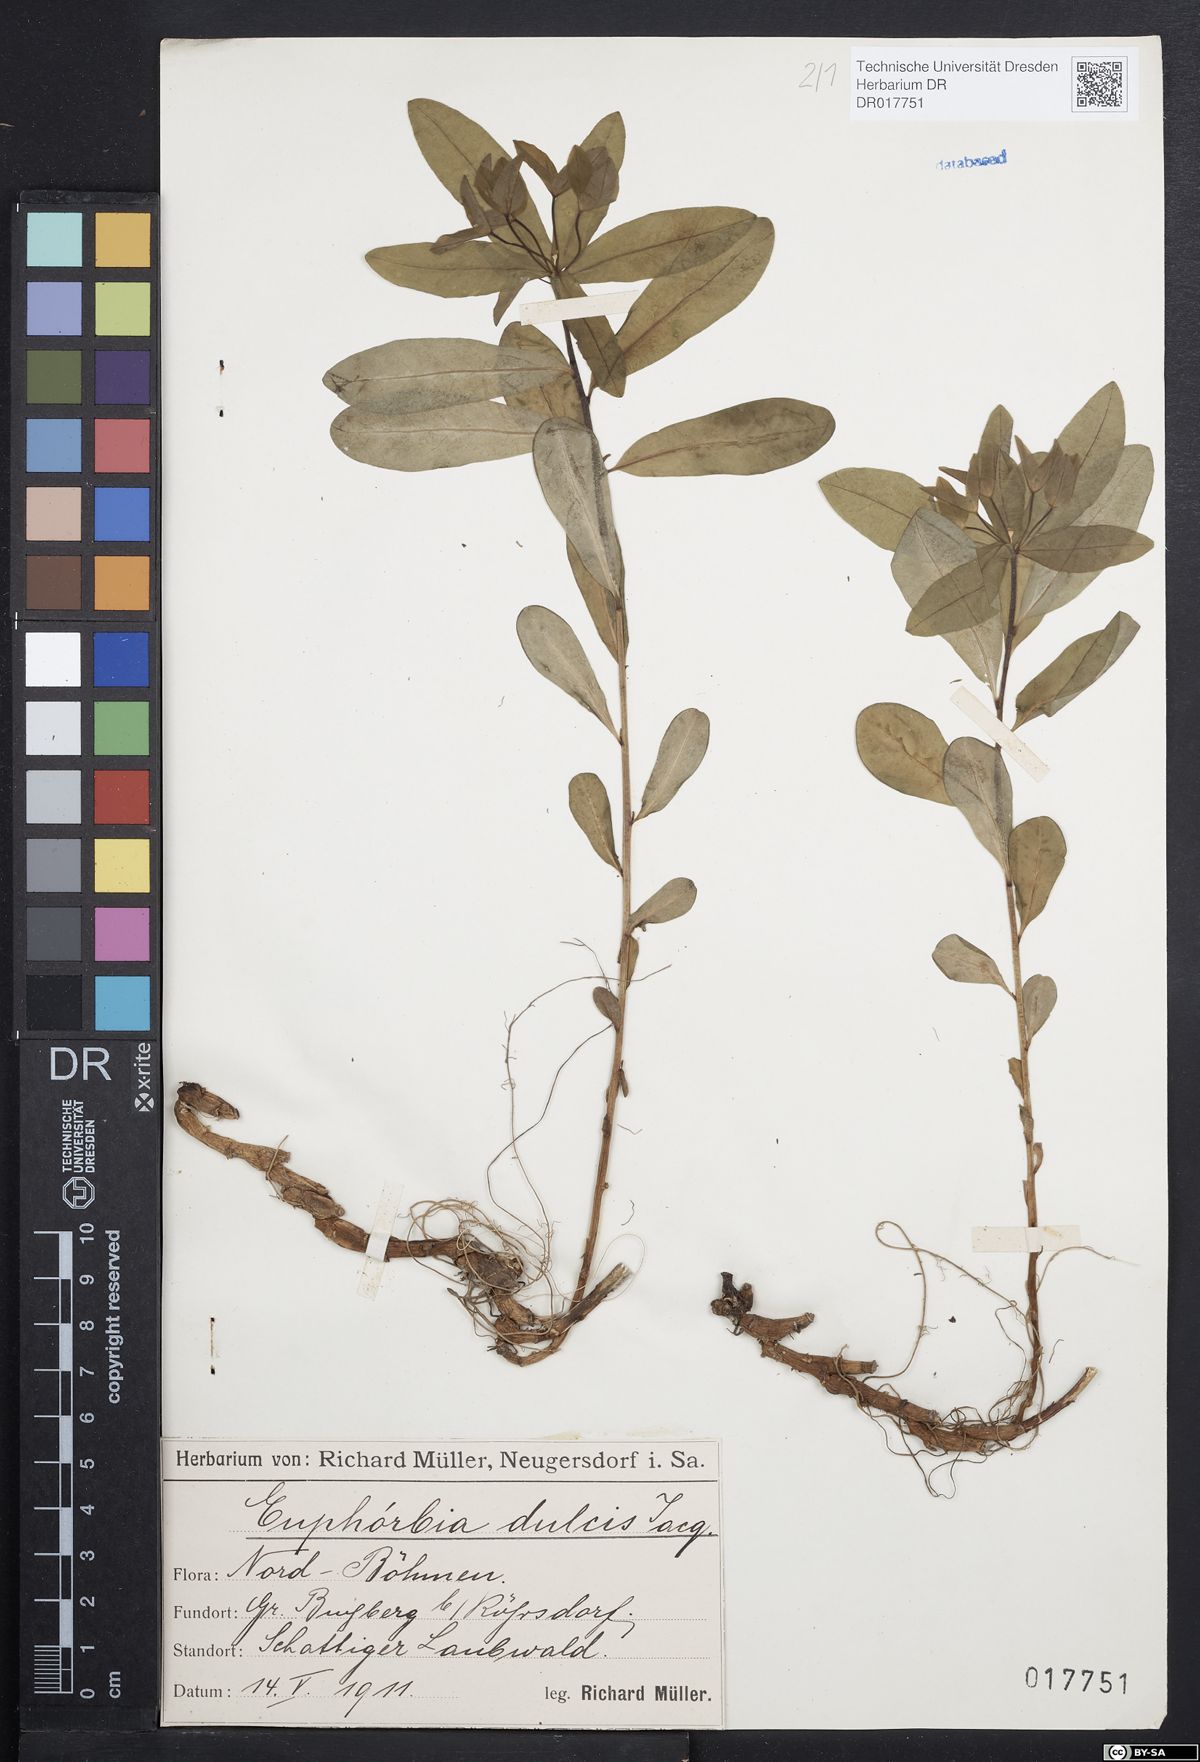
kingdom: Plantae
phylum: Tracheophyta
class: Magnoliopsida
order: Malpighiales
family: Euphorbiaceae
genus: Euphorbia
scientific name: Euphorbia dulcis
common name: Sweet spurge
